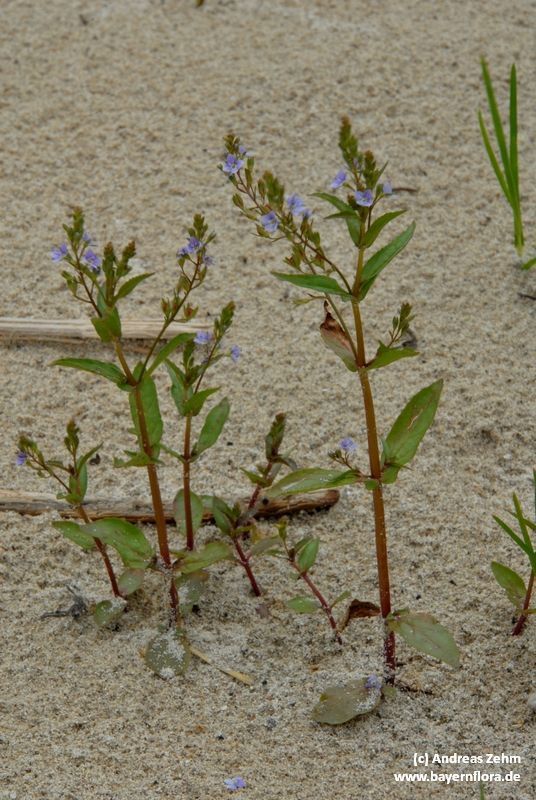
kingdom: Plantae
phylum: Tracheophyta
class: Magnoliopsida
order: Lamiales
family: Plantaginaceae
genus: Veronica
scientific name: Veronica anagallis-aquatica
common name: Water speedwell
